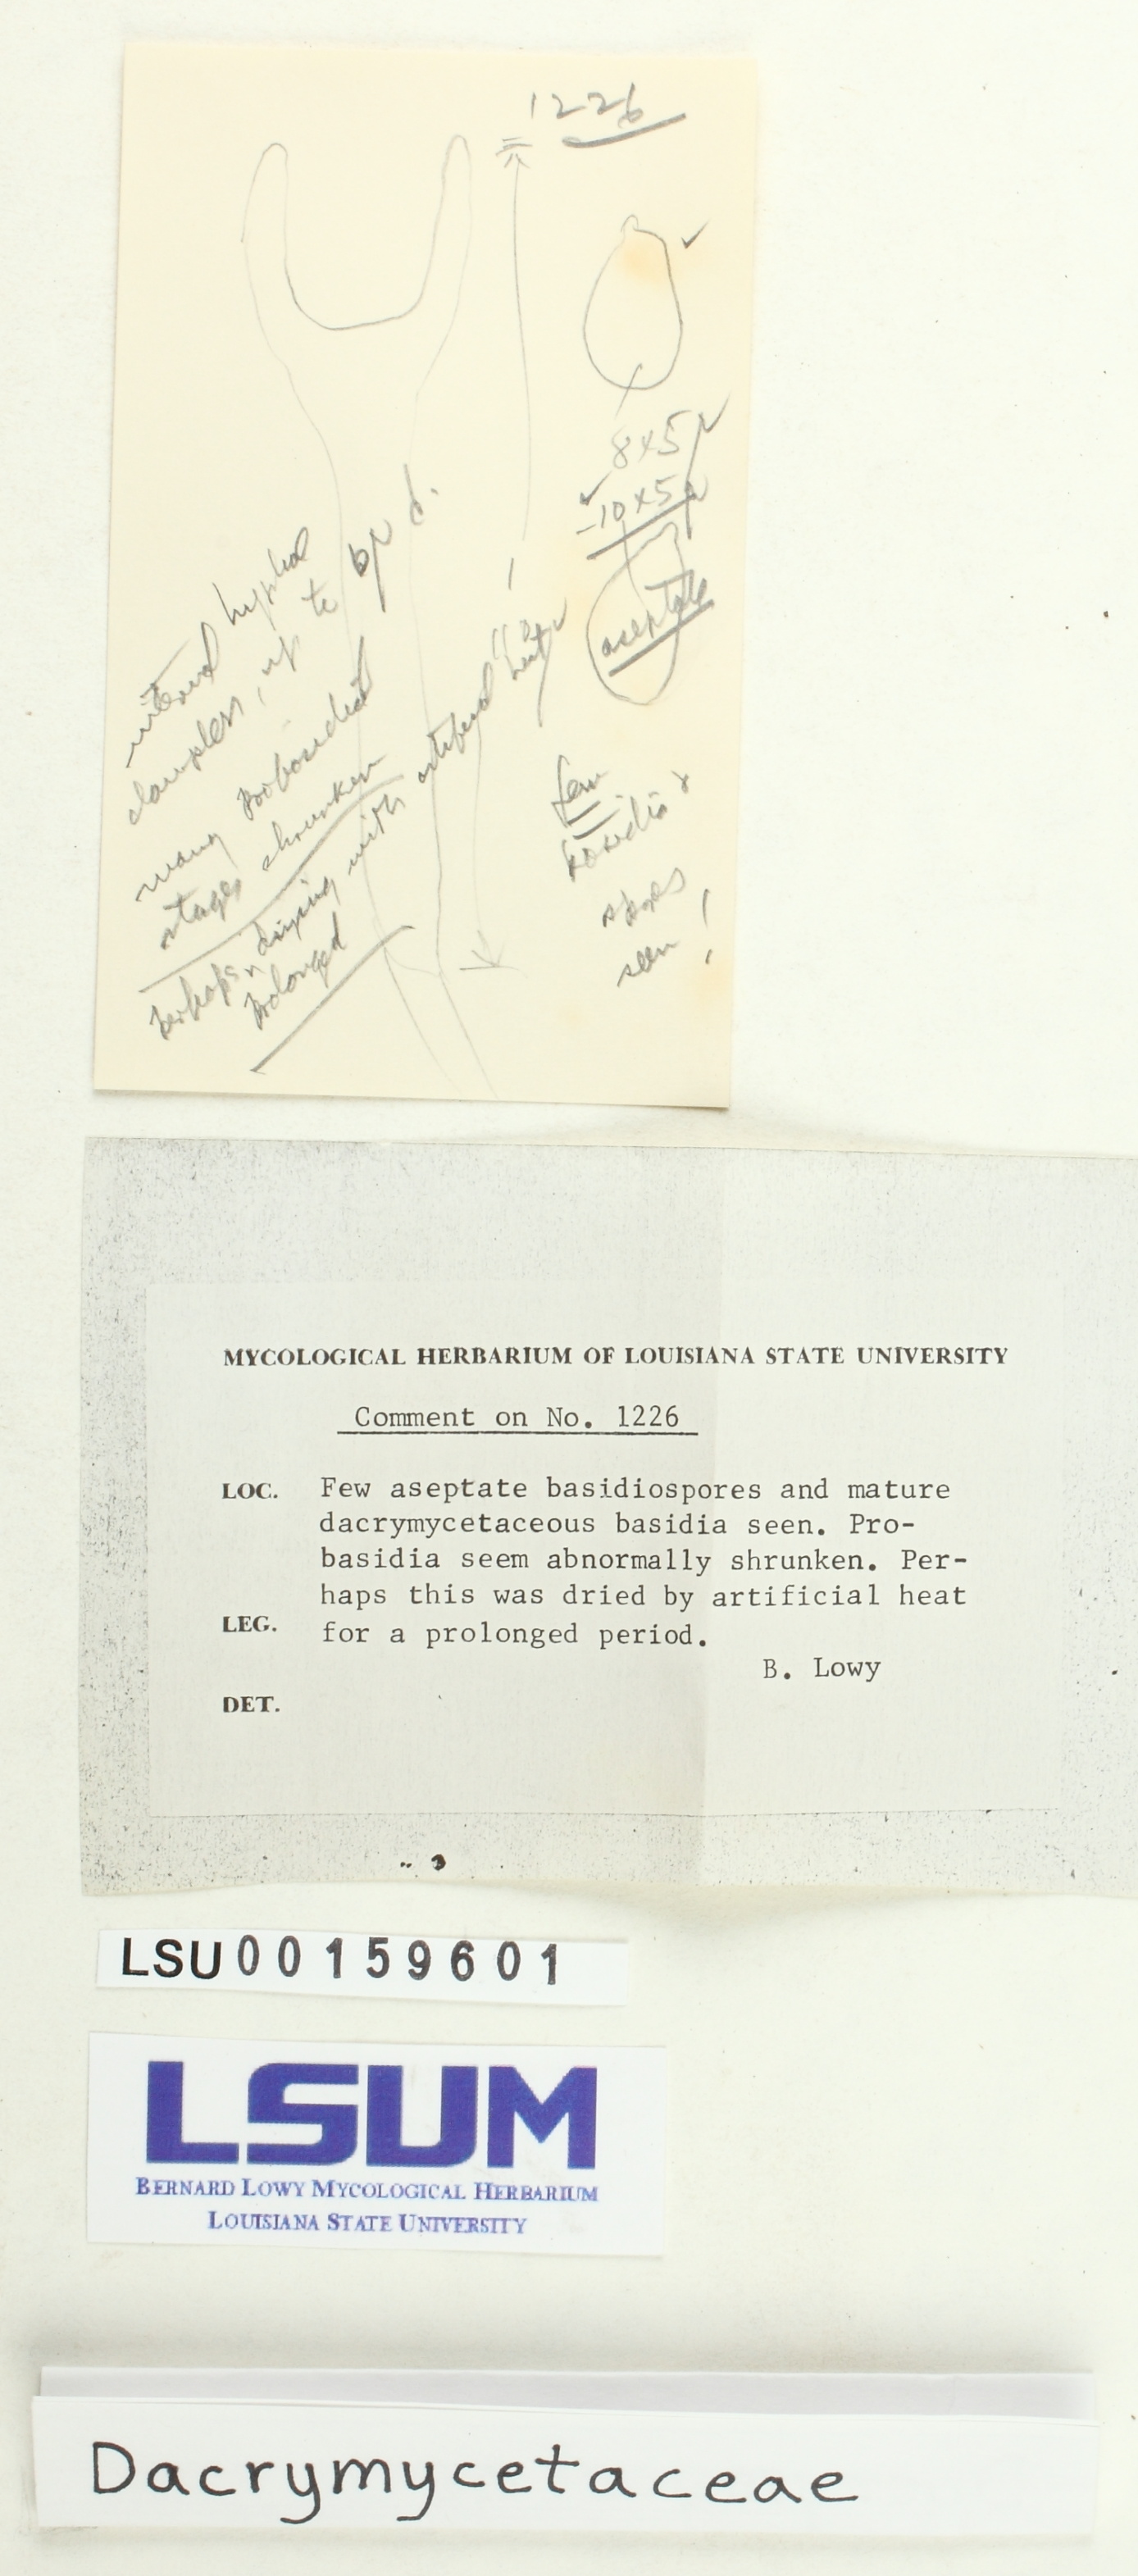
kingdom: Fungi
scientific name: Fungi
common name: Fungi
